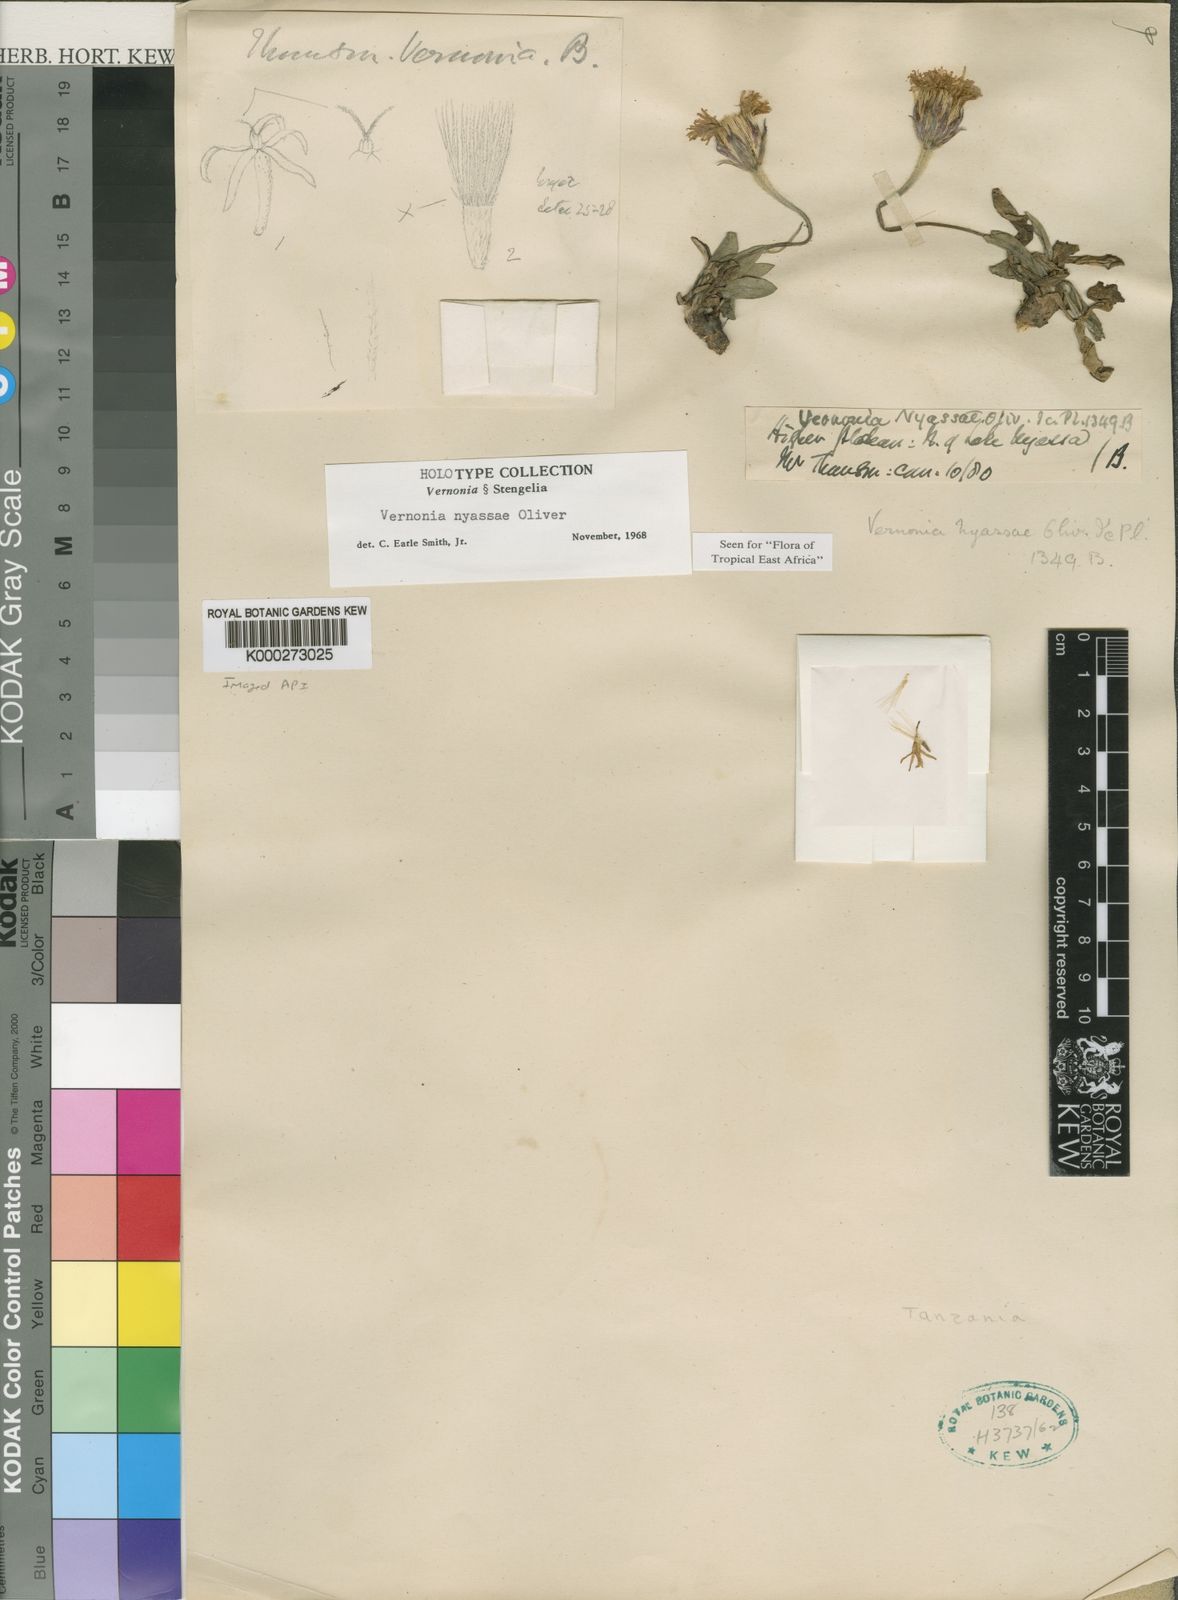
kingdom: Plantae
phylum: Tracheophyta
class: Magnoliopsida
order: Asterales
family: Asteraceae
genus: Lettowia
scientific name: Lettowia nyassae
